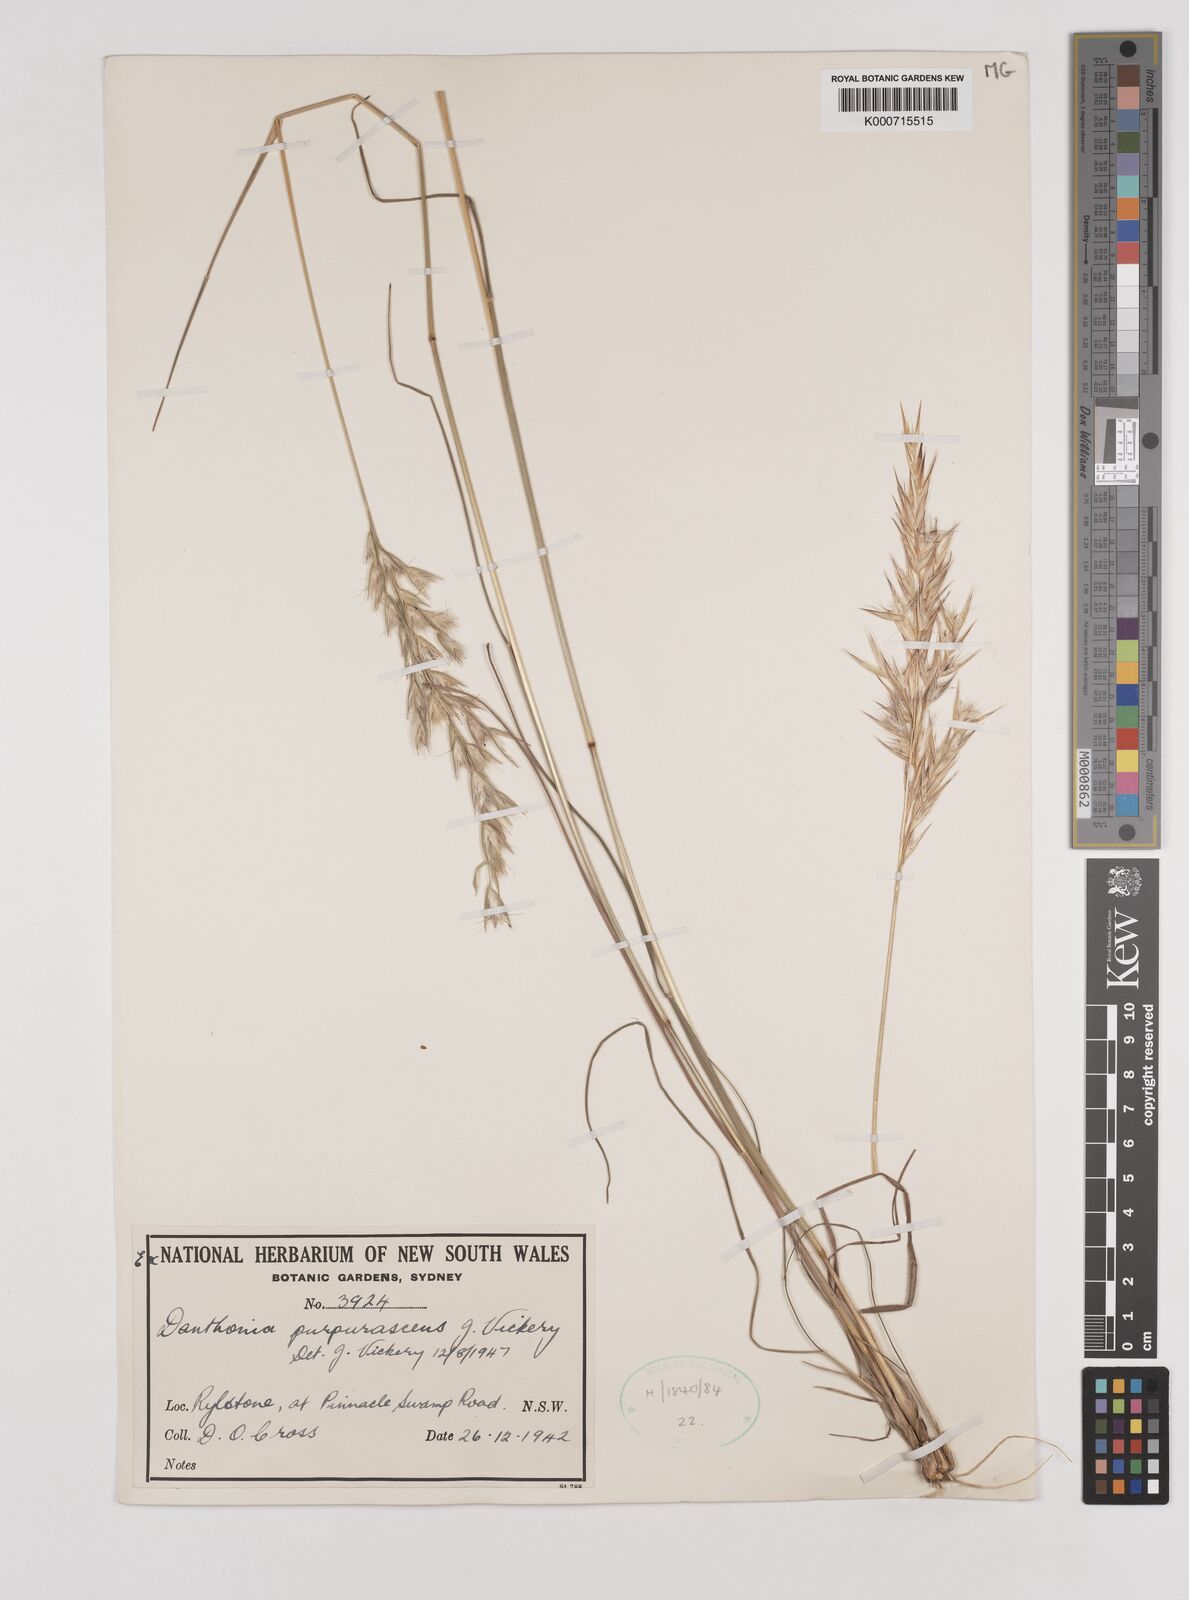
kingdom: Plantae
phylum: Tracheophyta
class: Liliopsida
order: Poales
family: Poaceae
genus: Rytidosperma
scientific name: Rytidosperma tenuius
